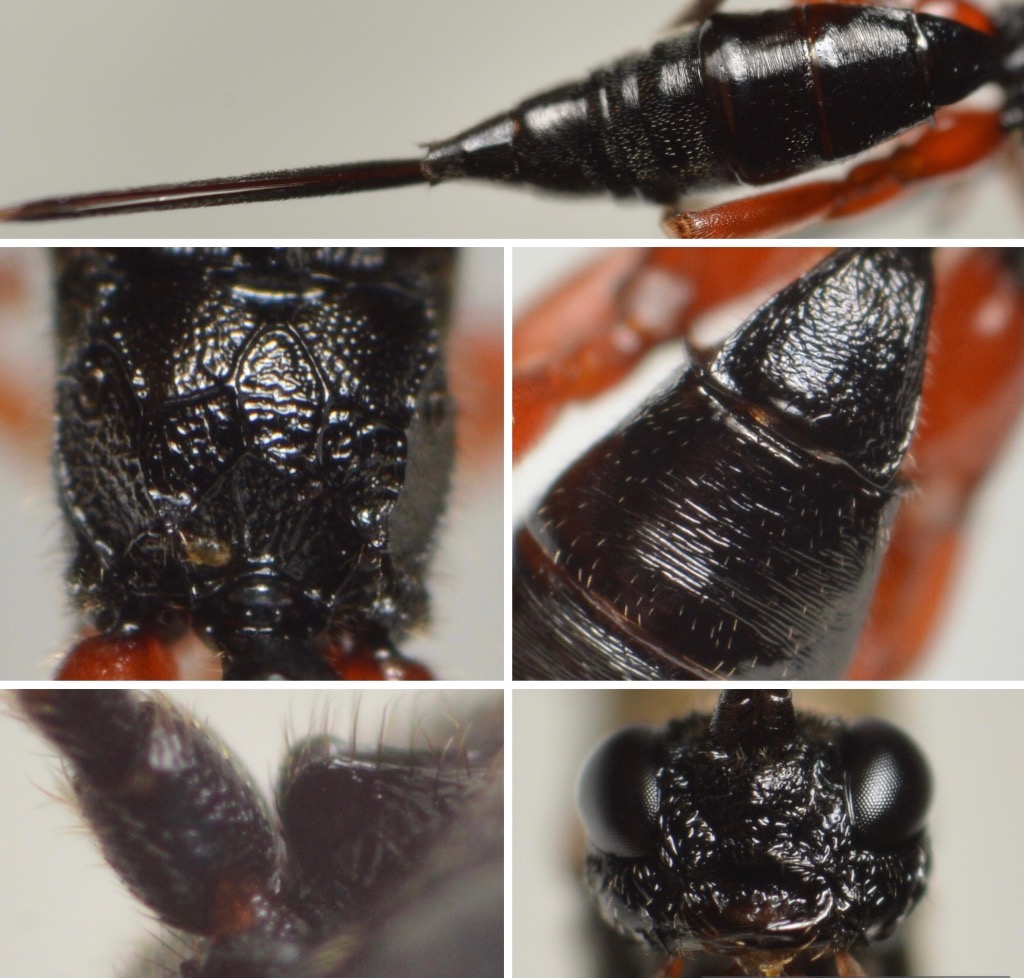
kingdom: Animalia
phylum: Arthropoda
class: Insecta
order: Hymenoptera
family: Ichneumonidae
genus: Ischnoceros
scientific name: Ischnoceros rusticus
